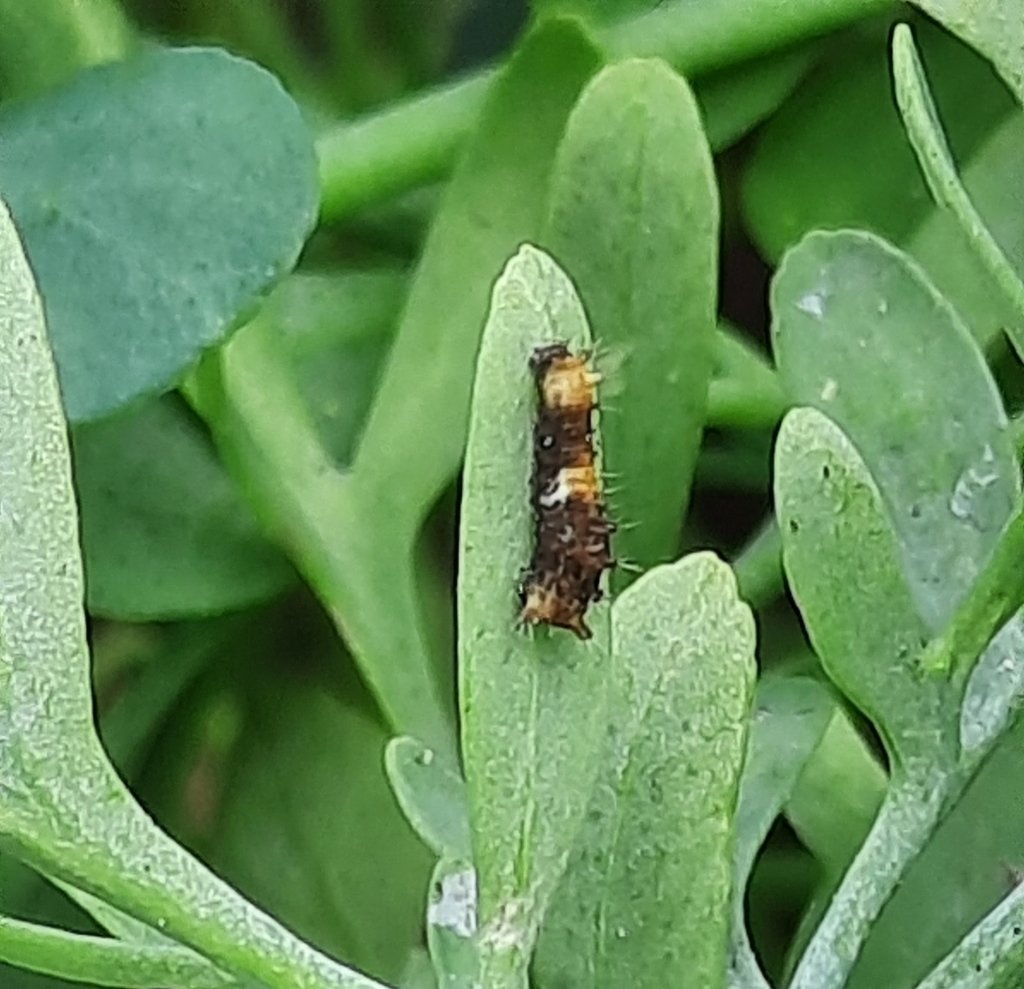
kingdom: Animalia
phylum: Arthropoda
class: Insecta
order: Lepidoptera
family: Papilionidae
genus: Papilio
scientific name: Papilio cresphontes
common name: Eastern Giant Swallowtail
